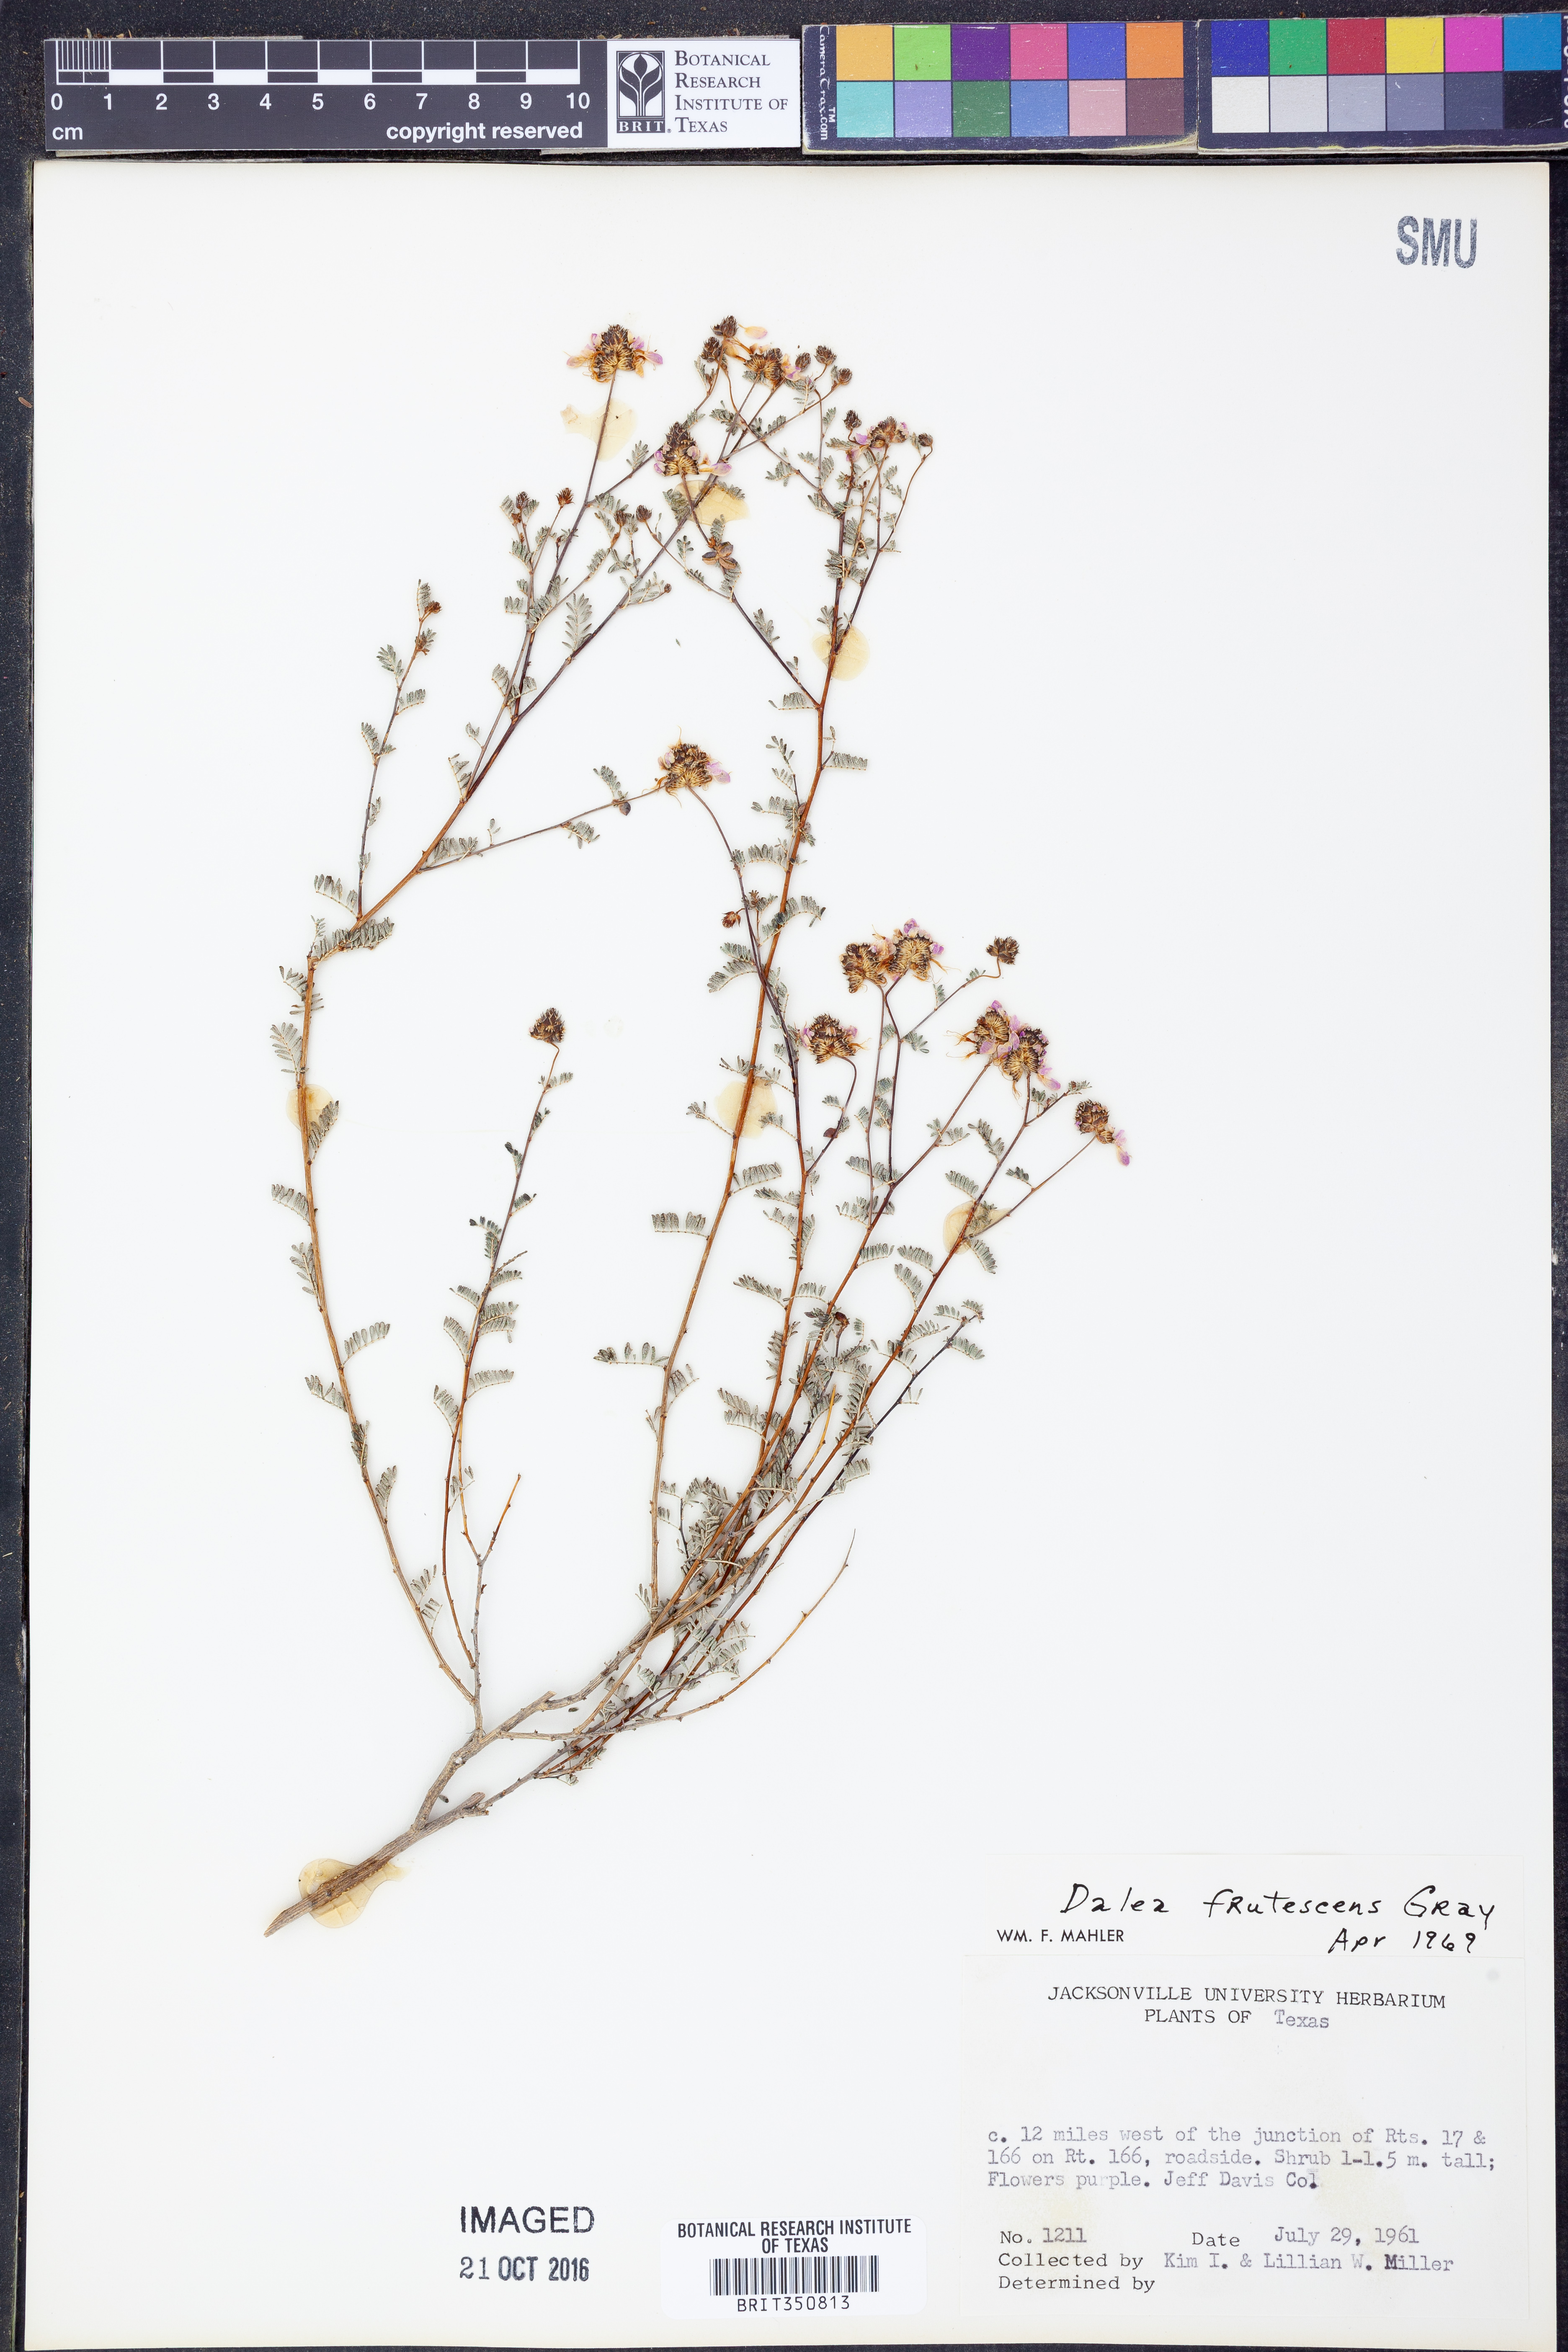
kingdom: Plantae
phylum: Tracheophyta
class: Magnoliopsida
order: Fabales
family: Fabaceae
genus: Dalea
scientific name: Dalea frutescens
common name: Black dalea
